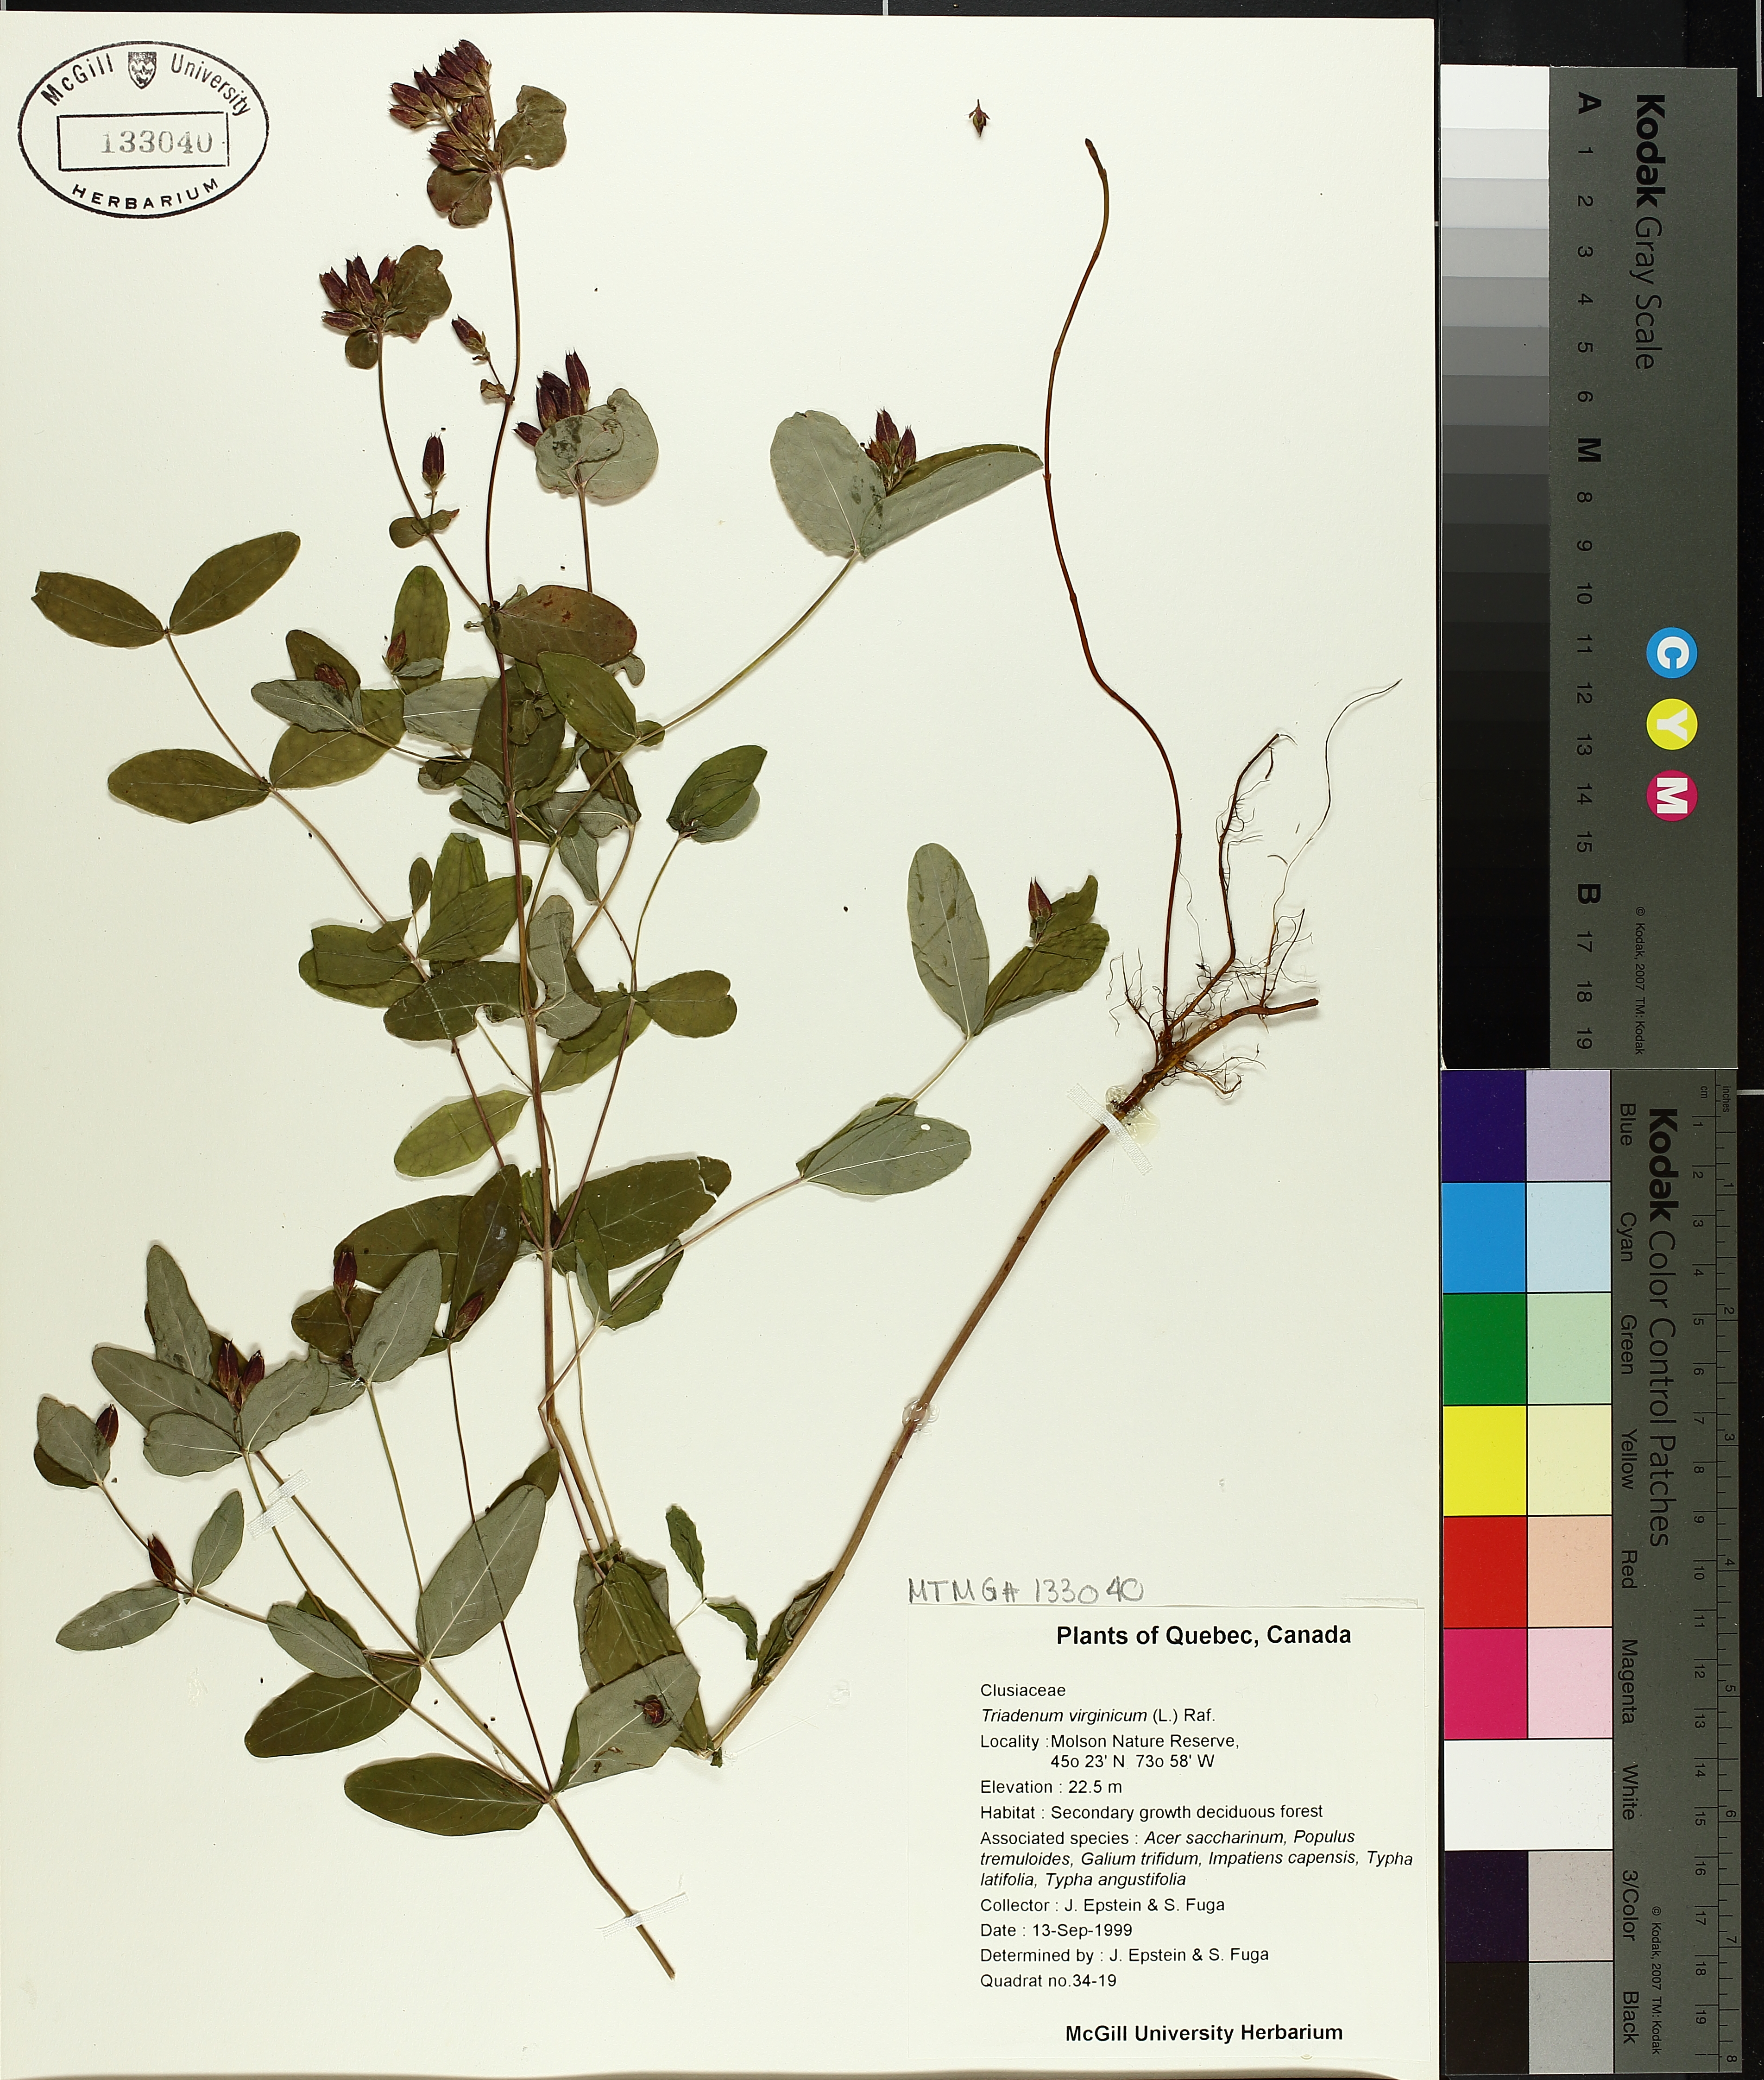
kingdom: Plantae
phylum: Tracheophyta
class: Magnoliopsida
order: Malpighiales
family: Hypericaceae
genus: Triadenum
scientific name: Triadenum fraseri
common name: Fraser's marsh st. johnswort
